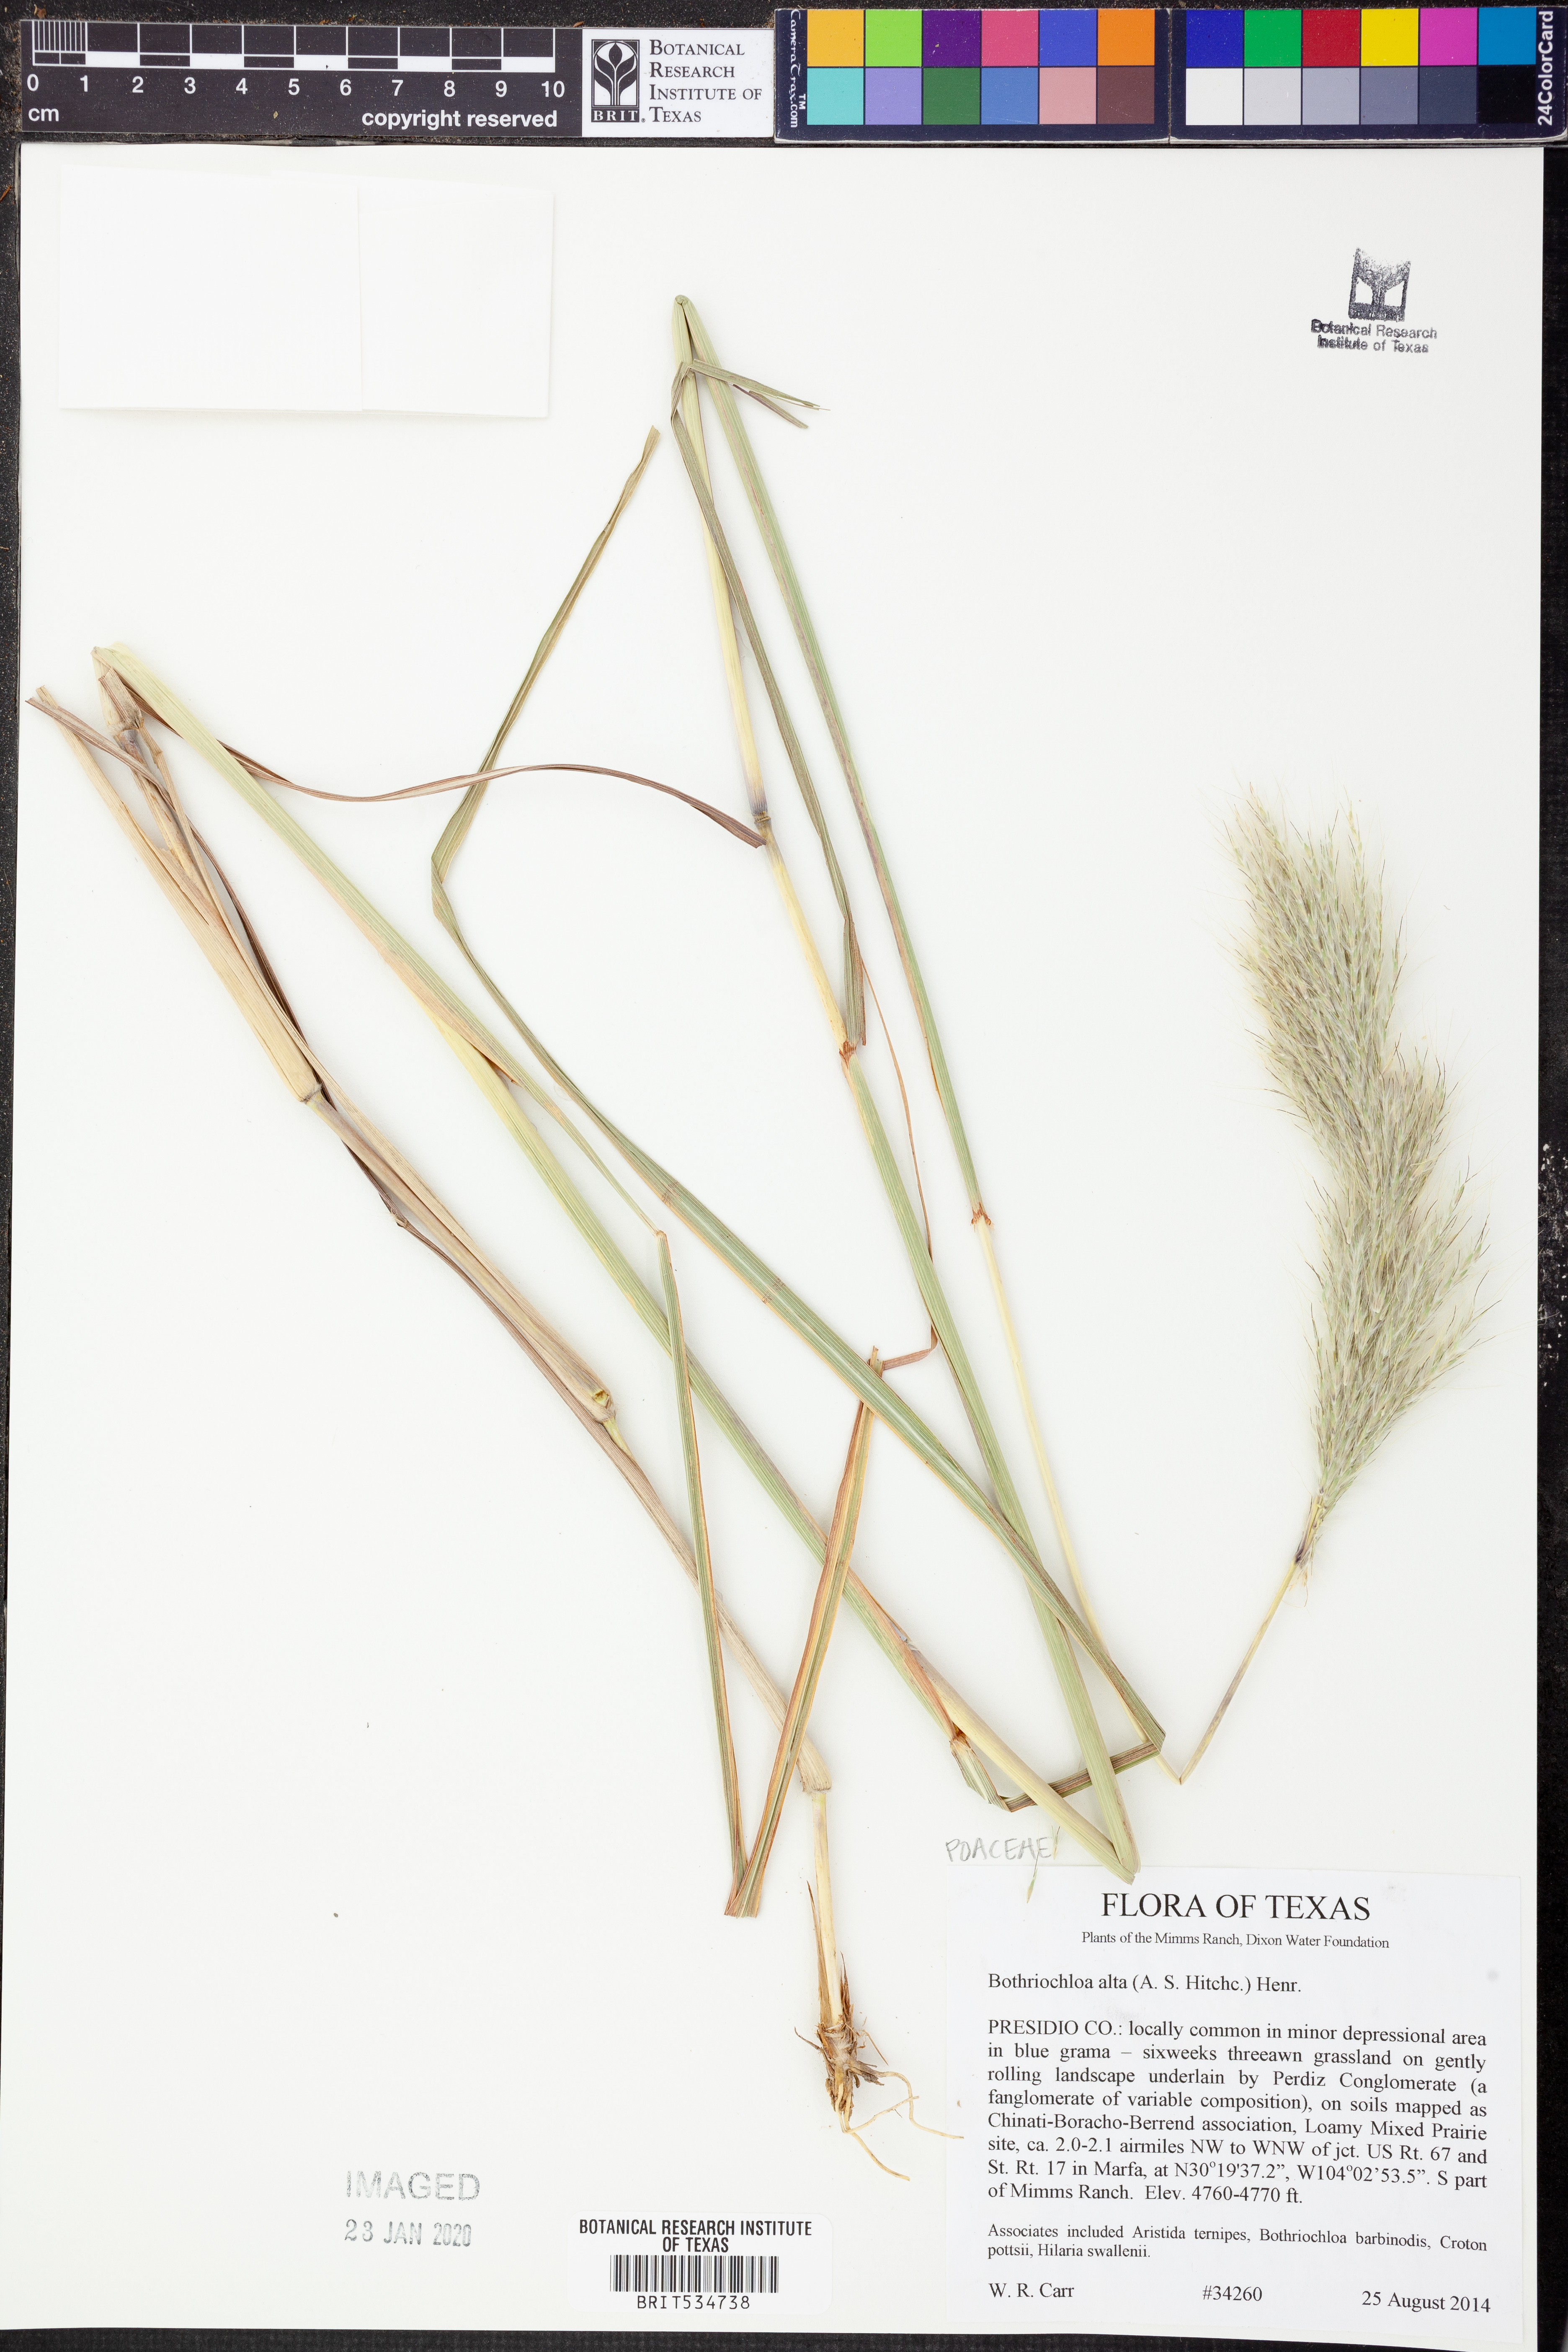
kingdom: Plantae
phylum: Tracheophyta
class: Liliopsida
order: Poales
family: Poaceae
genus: Bothriochloa
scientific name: Bothriochloa alta
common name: Tall bluestem
